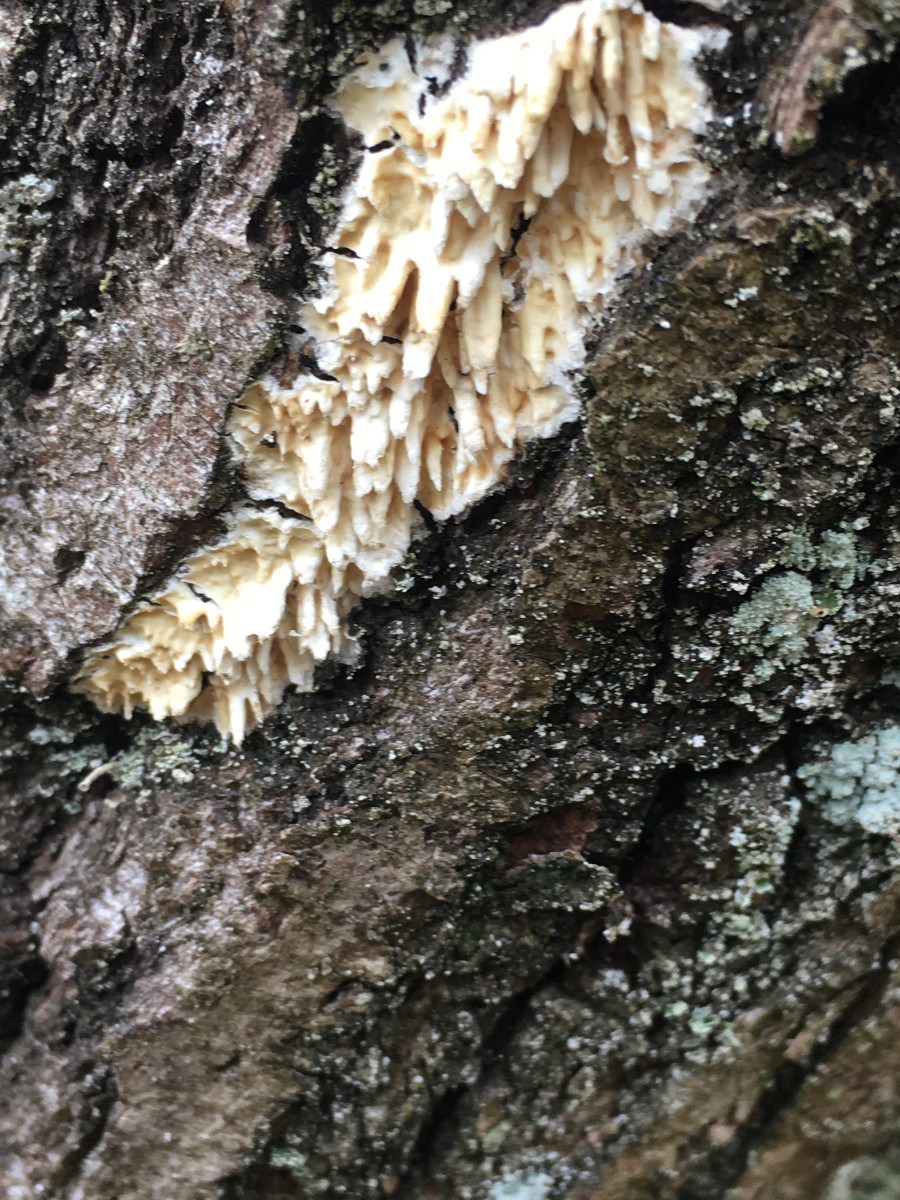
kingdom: Fungi
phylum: Basidiomycota
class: Agaricomycetes
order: Hymenochaetales
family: Schizoporaceae
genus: Xylodon
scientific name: Xylodon radula
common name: grovtandet kalkskind
